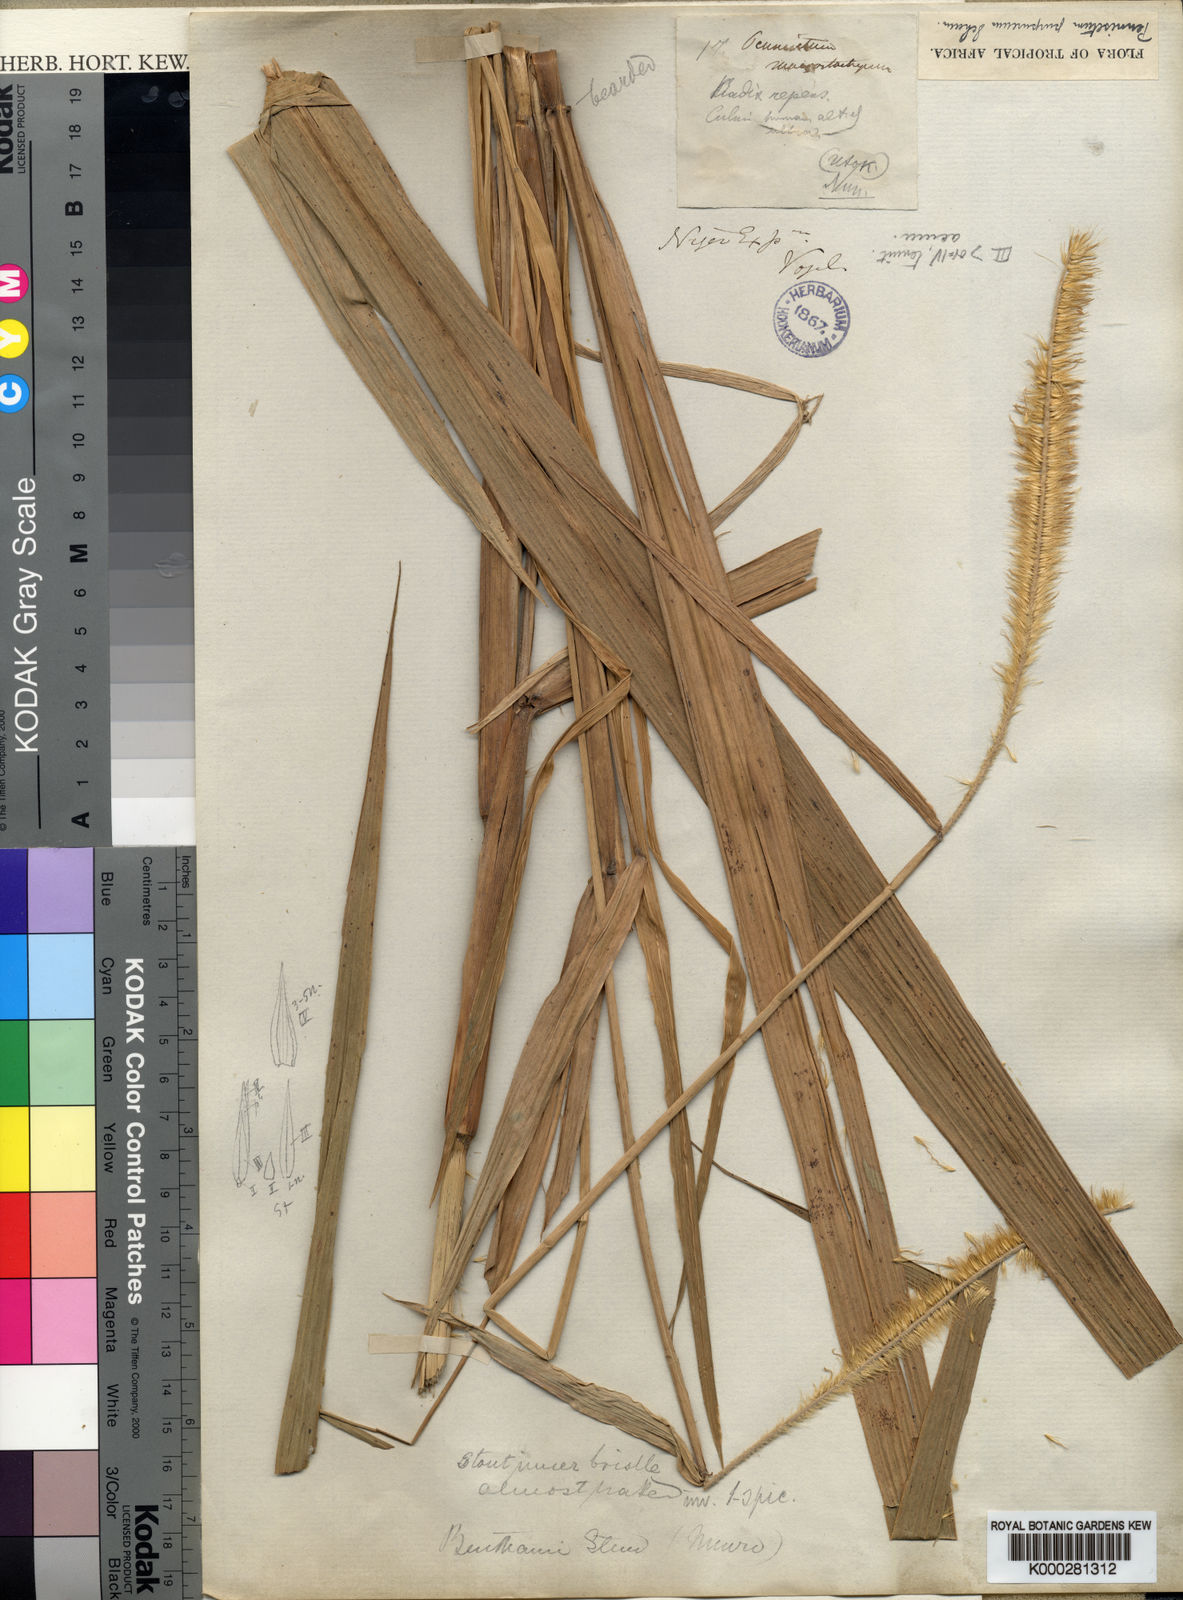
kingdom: Plantae
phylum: Tracheophyta
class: Liliopsida
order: Poales
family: Poaceae
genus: Cenchrus
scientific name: Cenchrus purpureus
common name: Elephant grass
